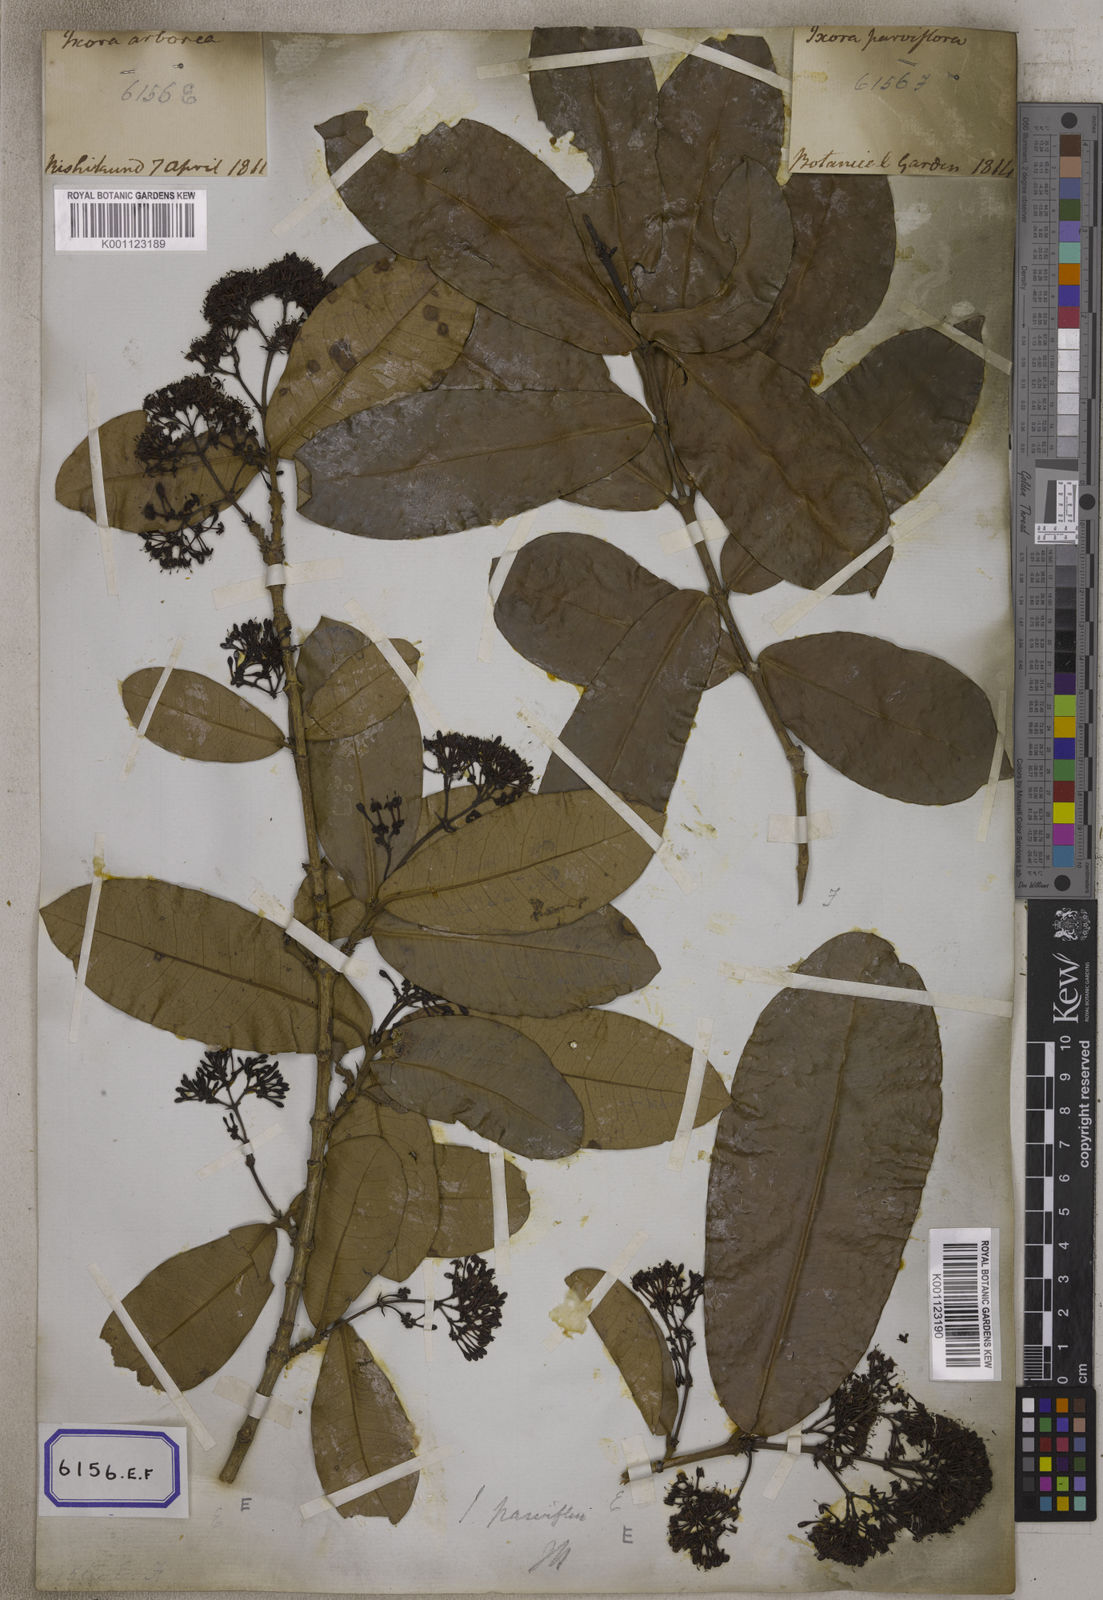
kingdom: Plantae
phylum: Tracheophyta
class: Magnoliopsida
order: Gentianales
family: Rubiaceae
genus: Ixora
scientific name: Ixora pavetta
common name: Torch tree
